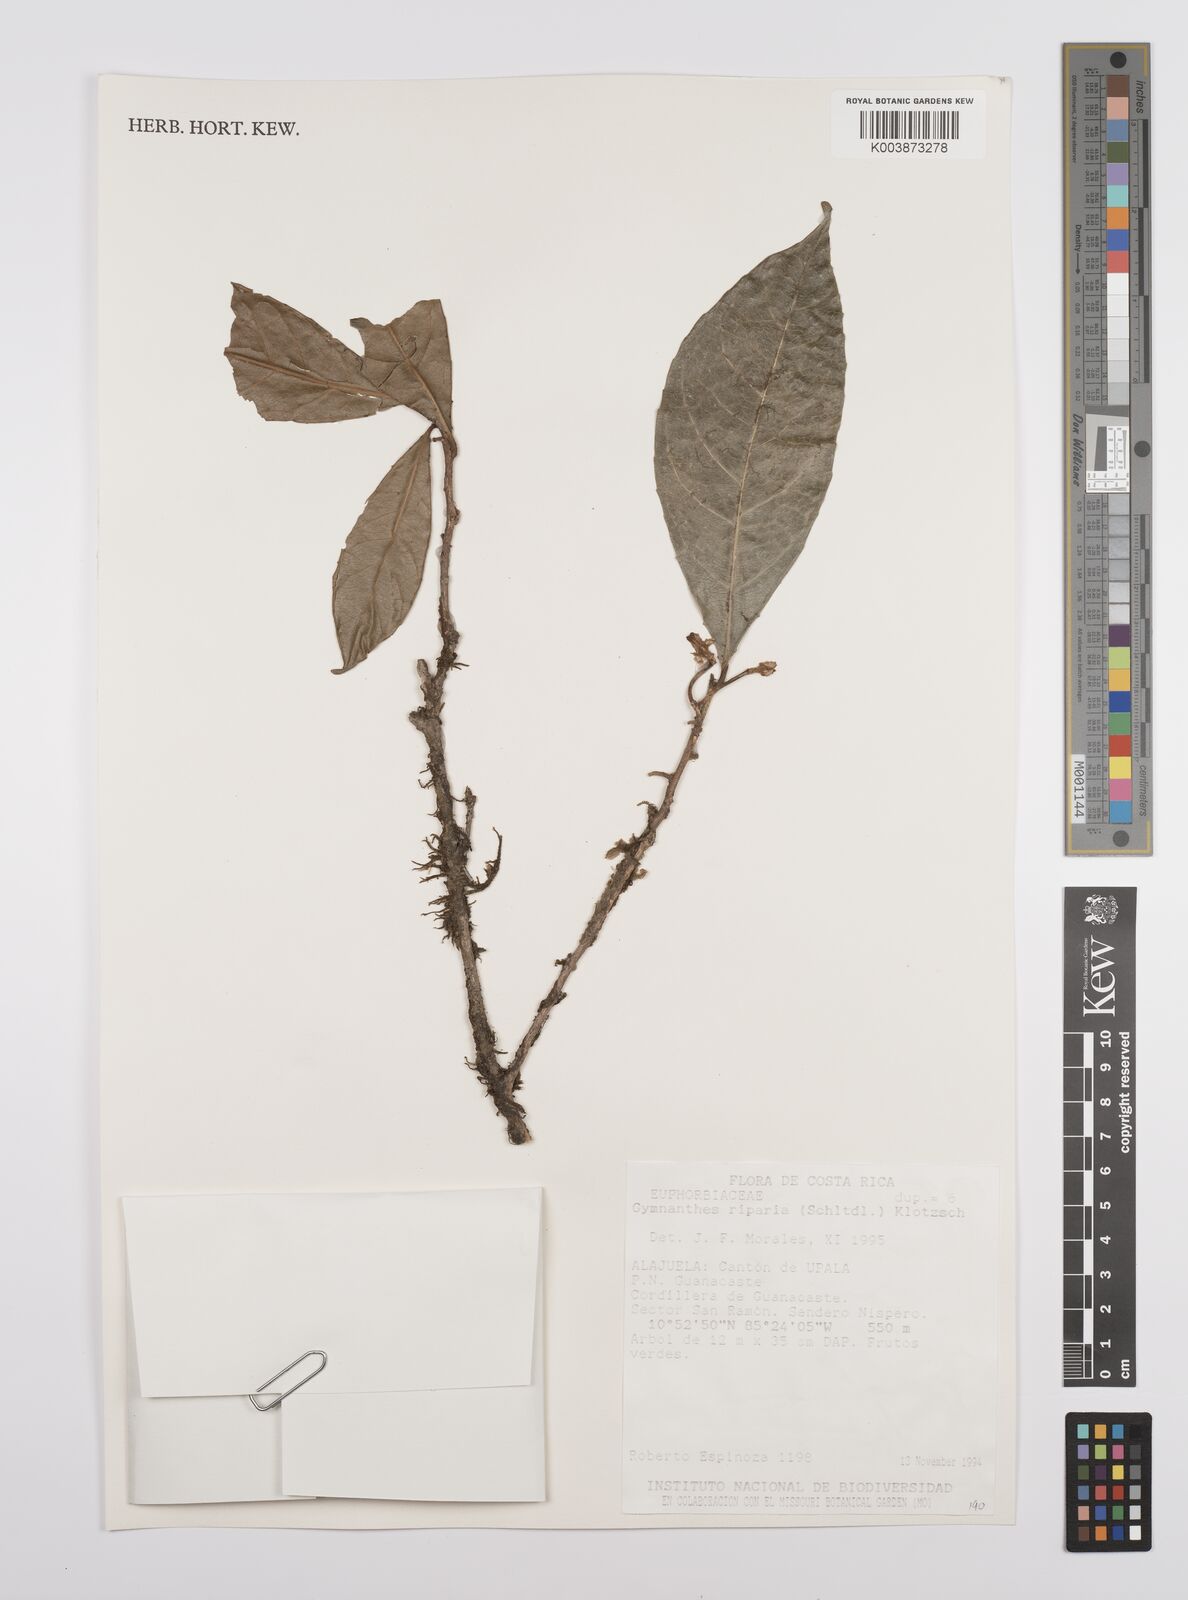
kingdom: Plantae
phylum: Tracheophyta
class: Magnoliopsida
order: Malpighiales
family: Euphorbiaceae
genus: Gymnanthes
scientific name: Gymnanthes riparia
